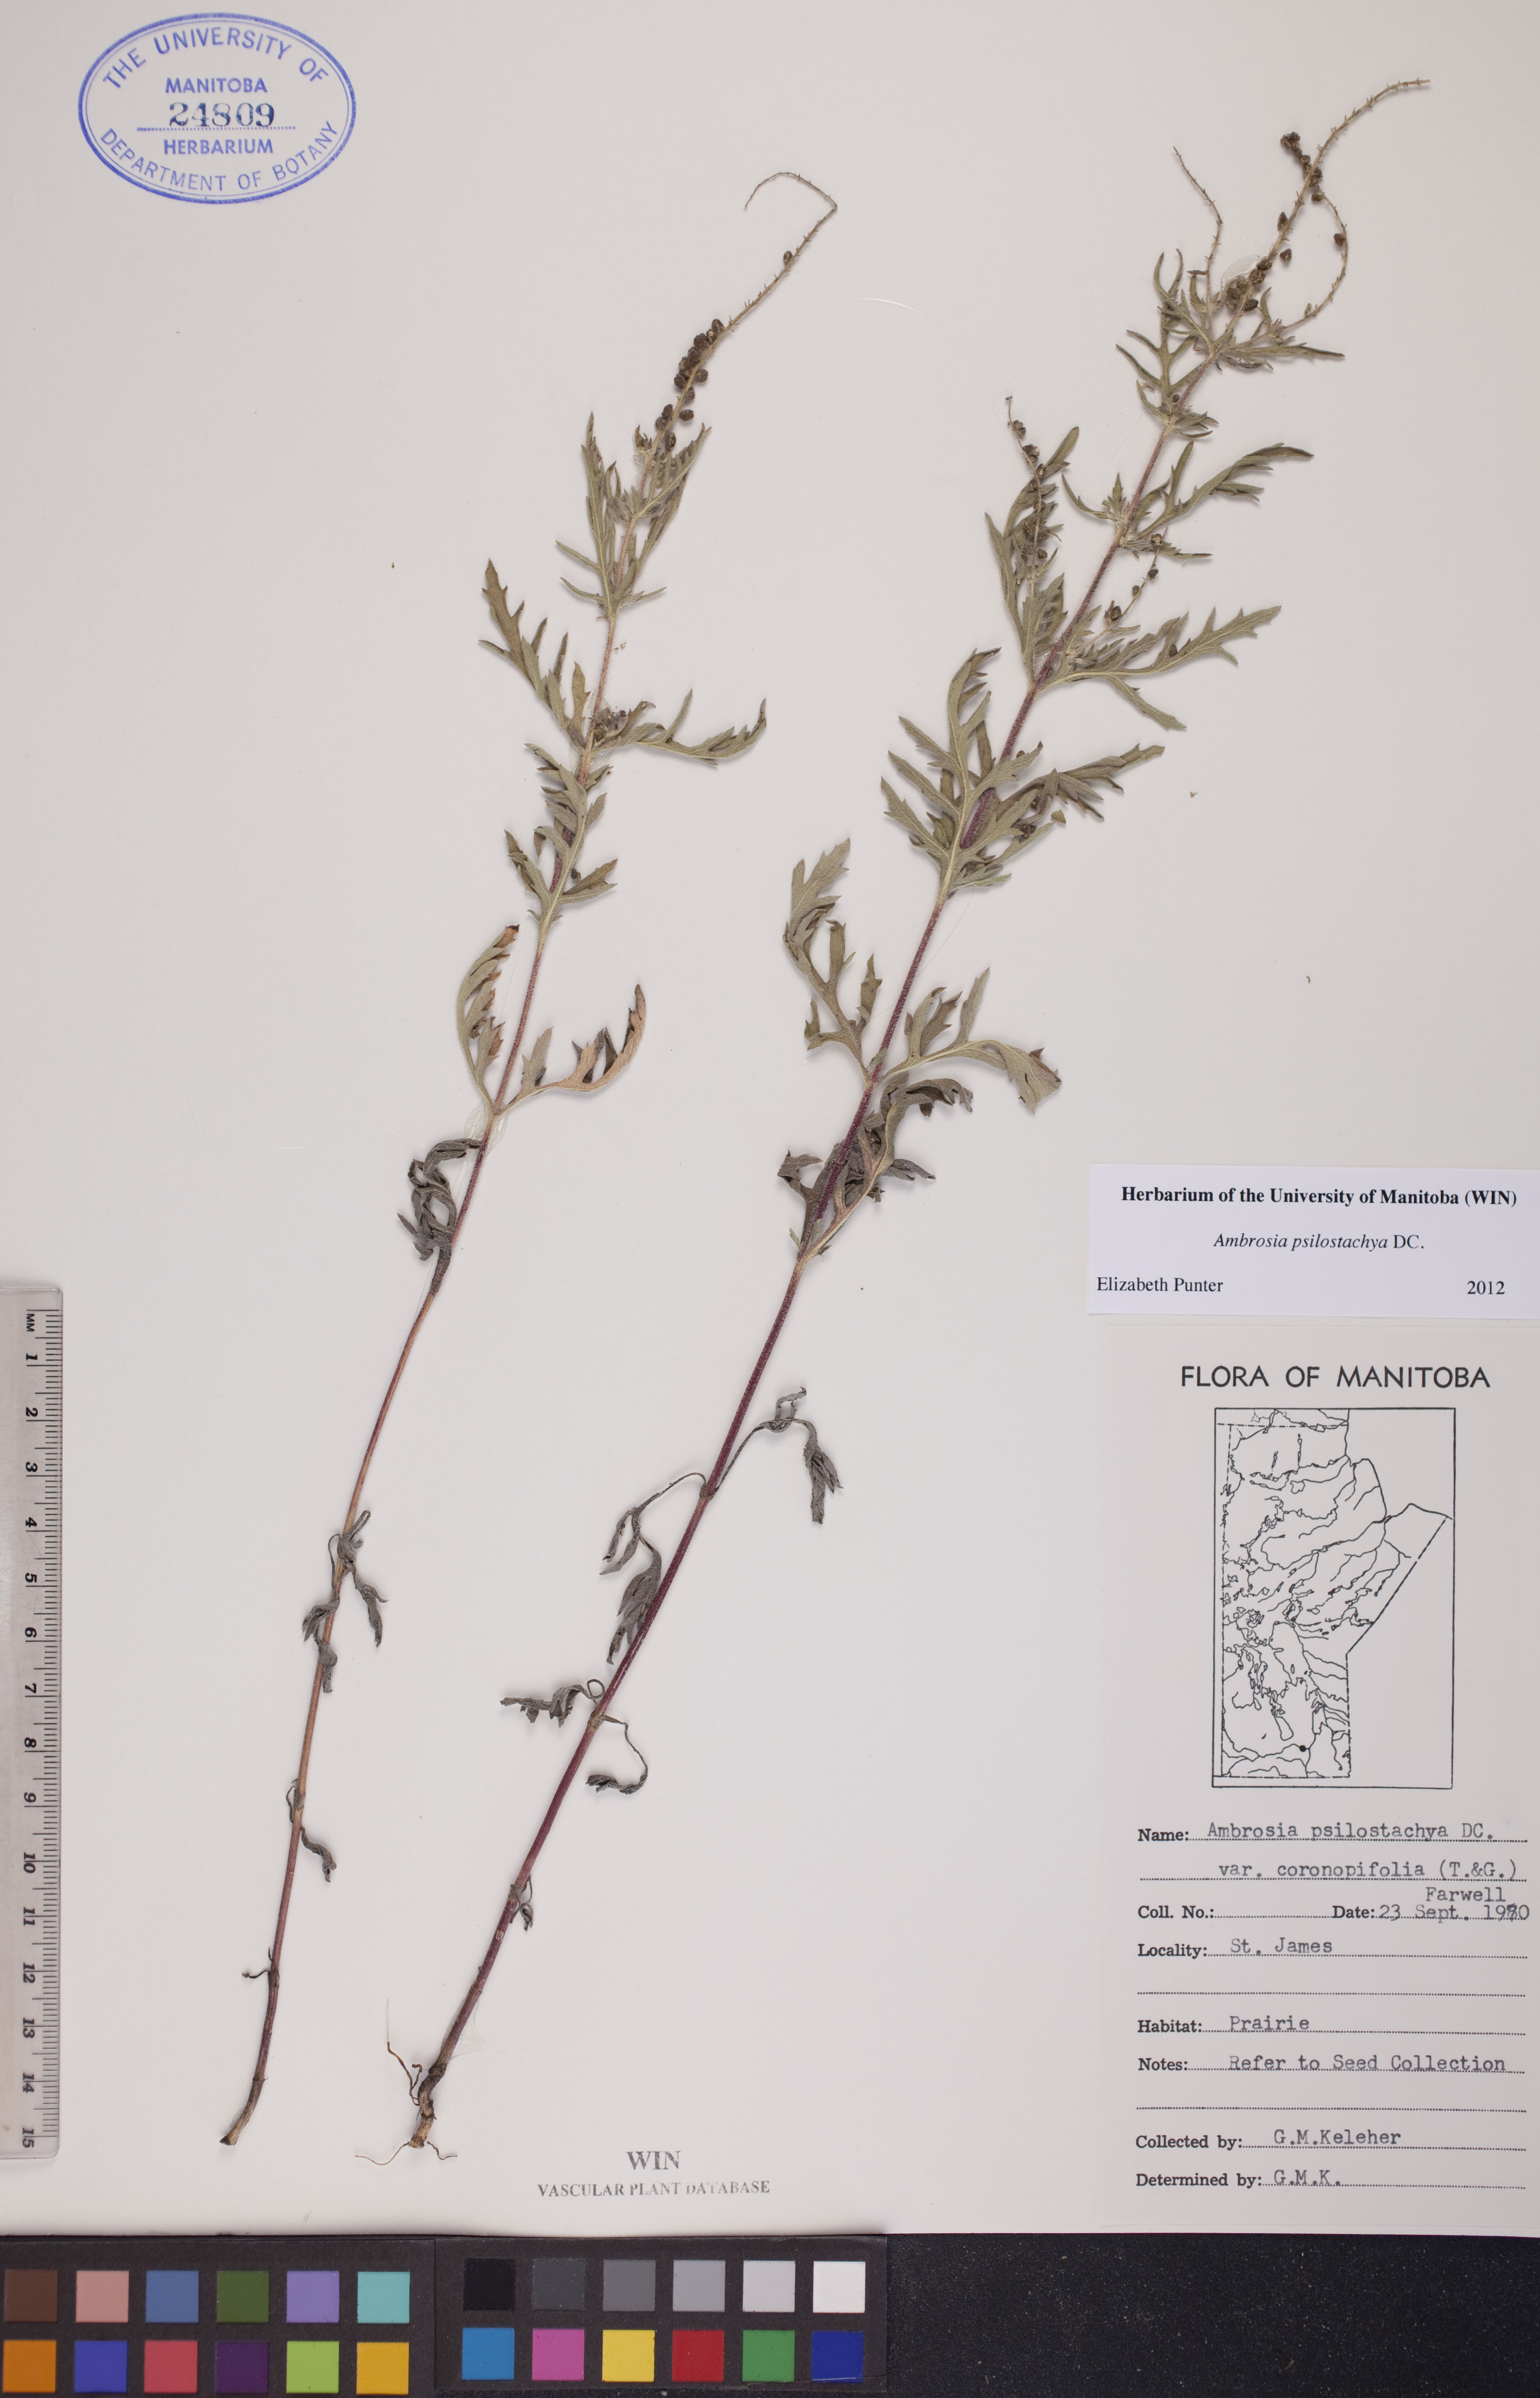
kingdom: Plantae
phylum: Tracheophyta
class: Magnoliopsida
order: Asterales
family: Asteraceae
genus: Ambrosia
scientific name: Ambrosia psilostachya
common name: Perennial ragweed
